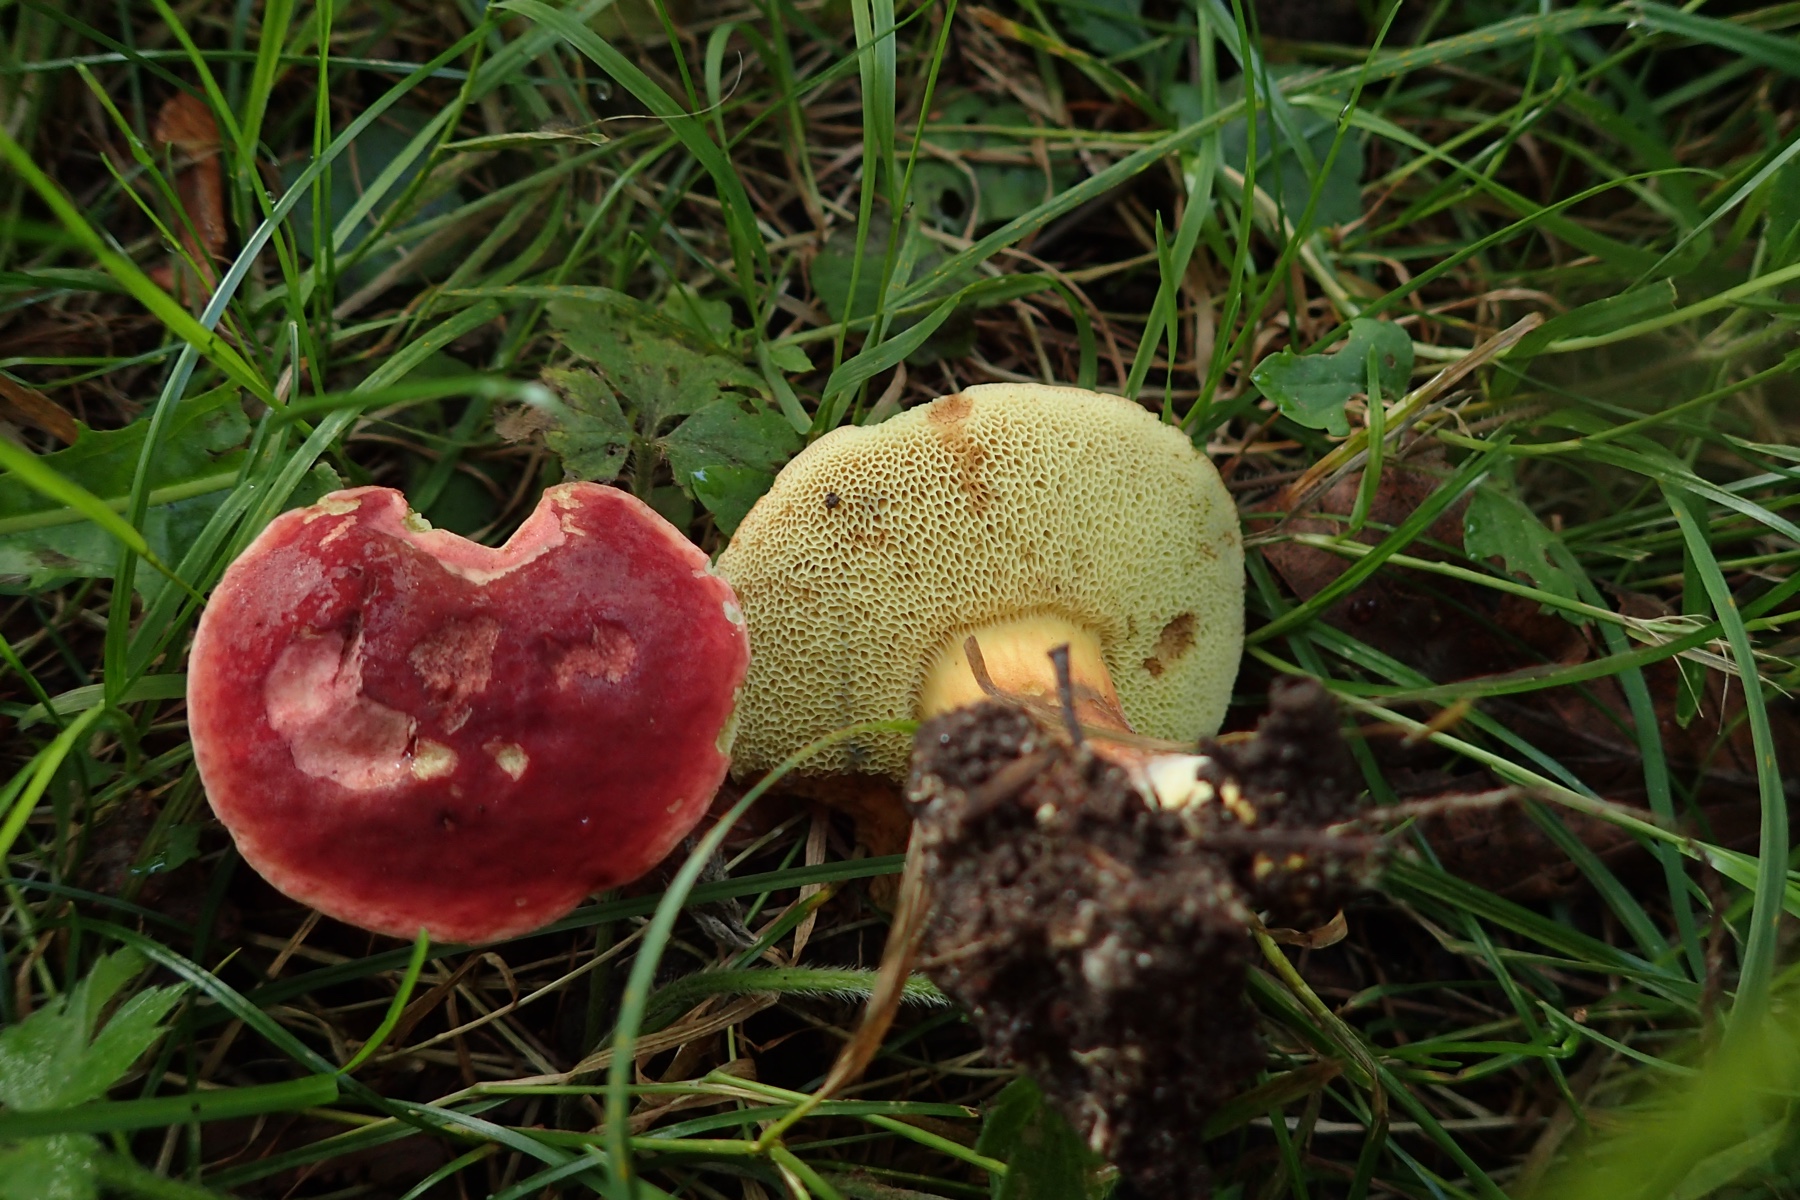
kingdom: Fungi
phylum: Basidiomycota
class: Agaricomycetes
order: Boletales
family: Boletaceae
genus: Hortiboletus
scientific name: Hortiboletus rubellus
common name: blodrød rørhat
